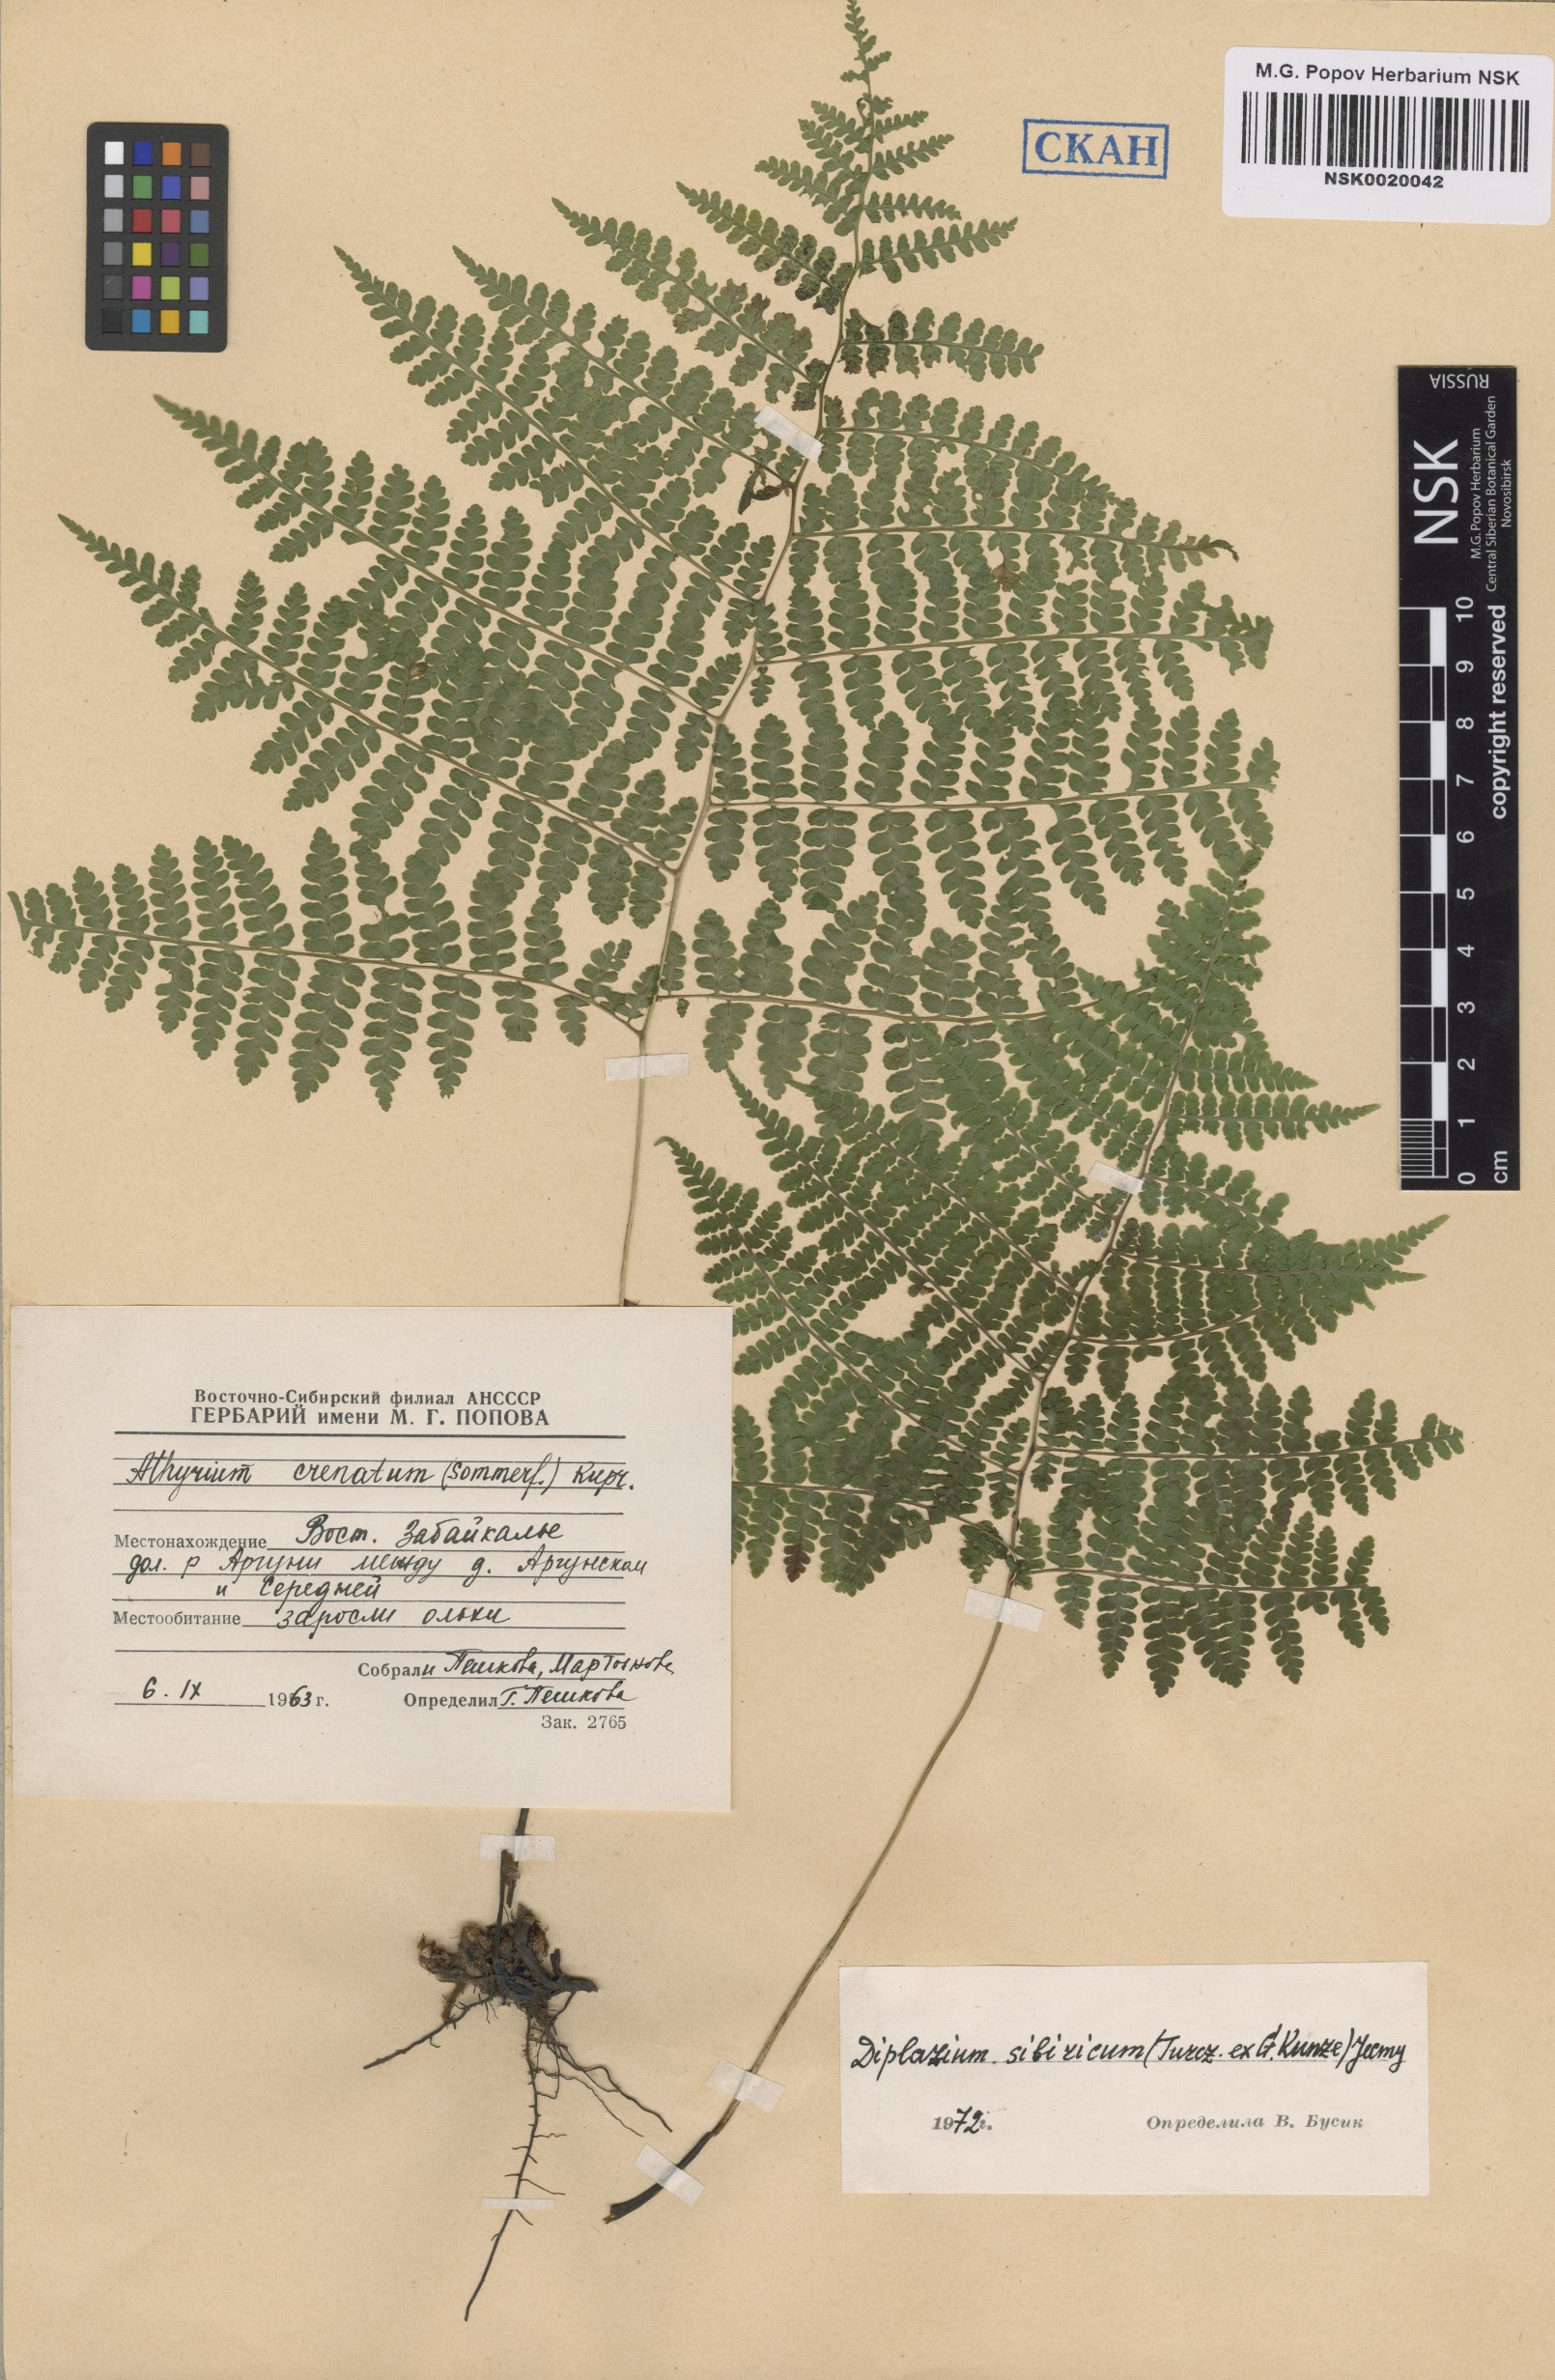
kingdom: Plantae
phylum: Tracheophyta
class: Polypodiopsida
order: Polypodiales
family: Athyriaceae
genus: Diplazium
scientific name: Diplazium sibiricum
